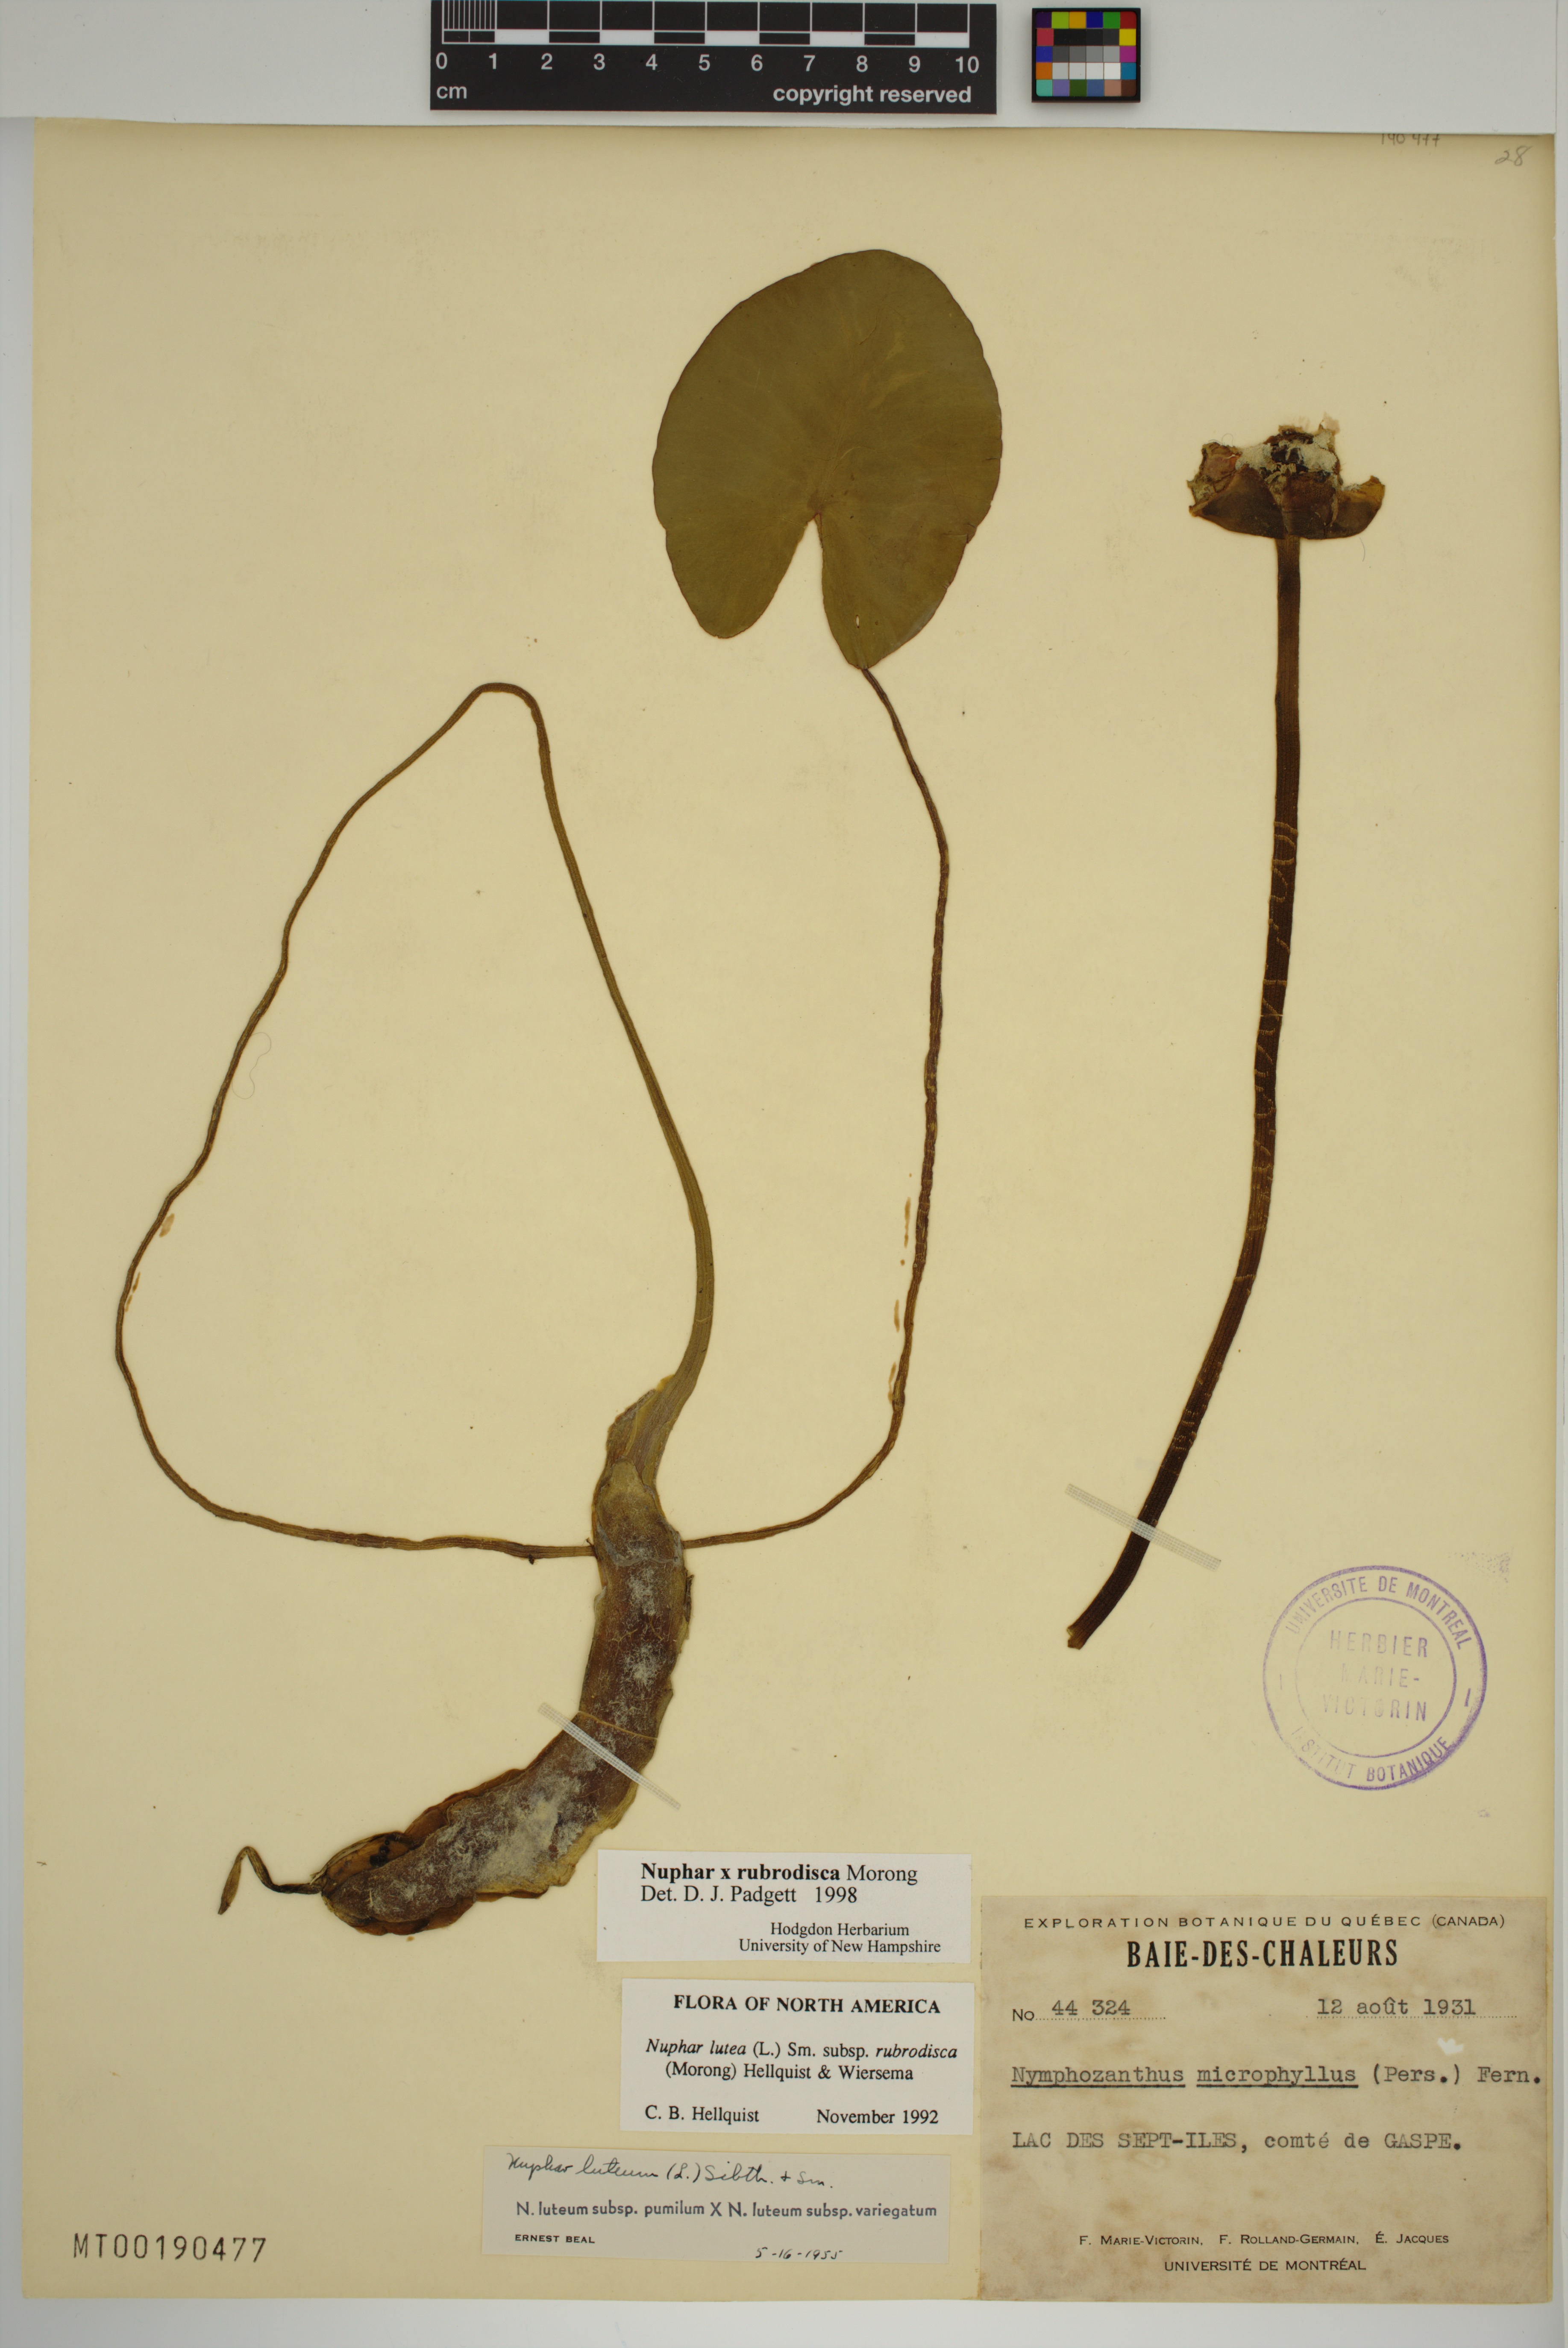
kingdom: Plantae
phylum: Tracheophyta
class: Magnoliopsida
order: Nymphaeales
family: Nymphaeaceae
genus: Nuphar
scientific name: Nuphar rubrodisca
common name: Yellow pond-lily
